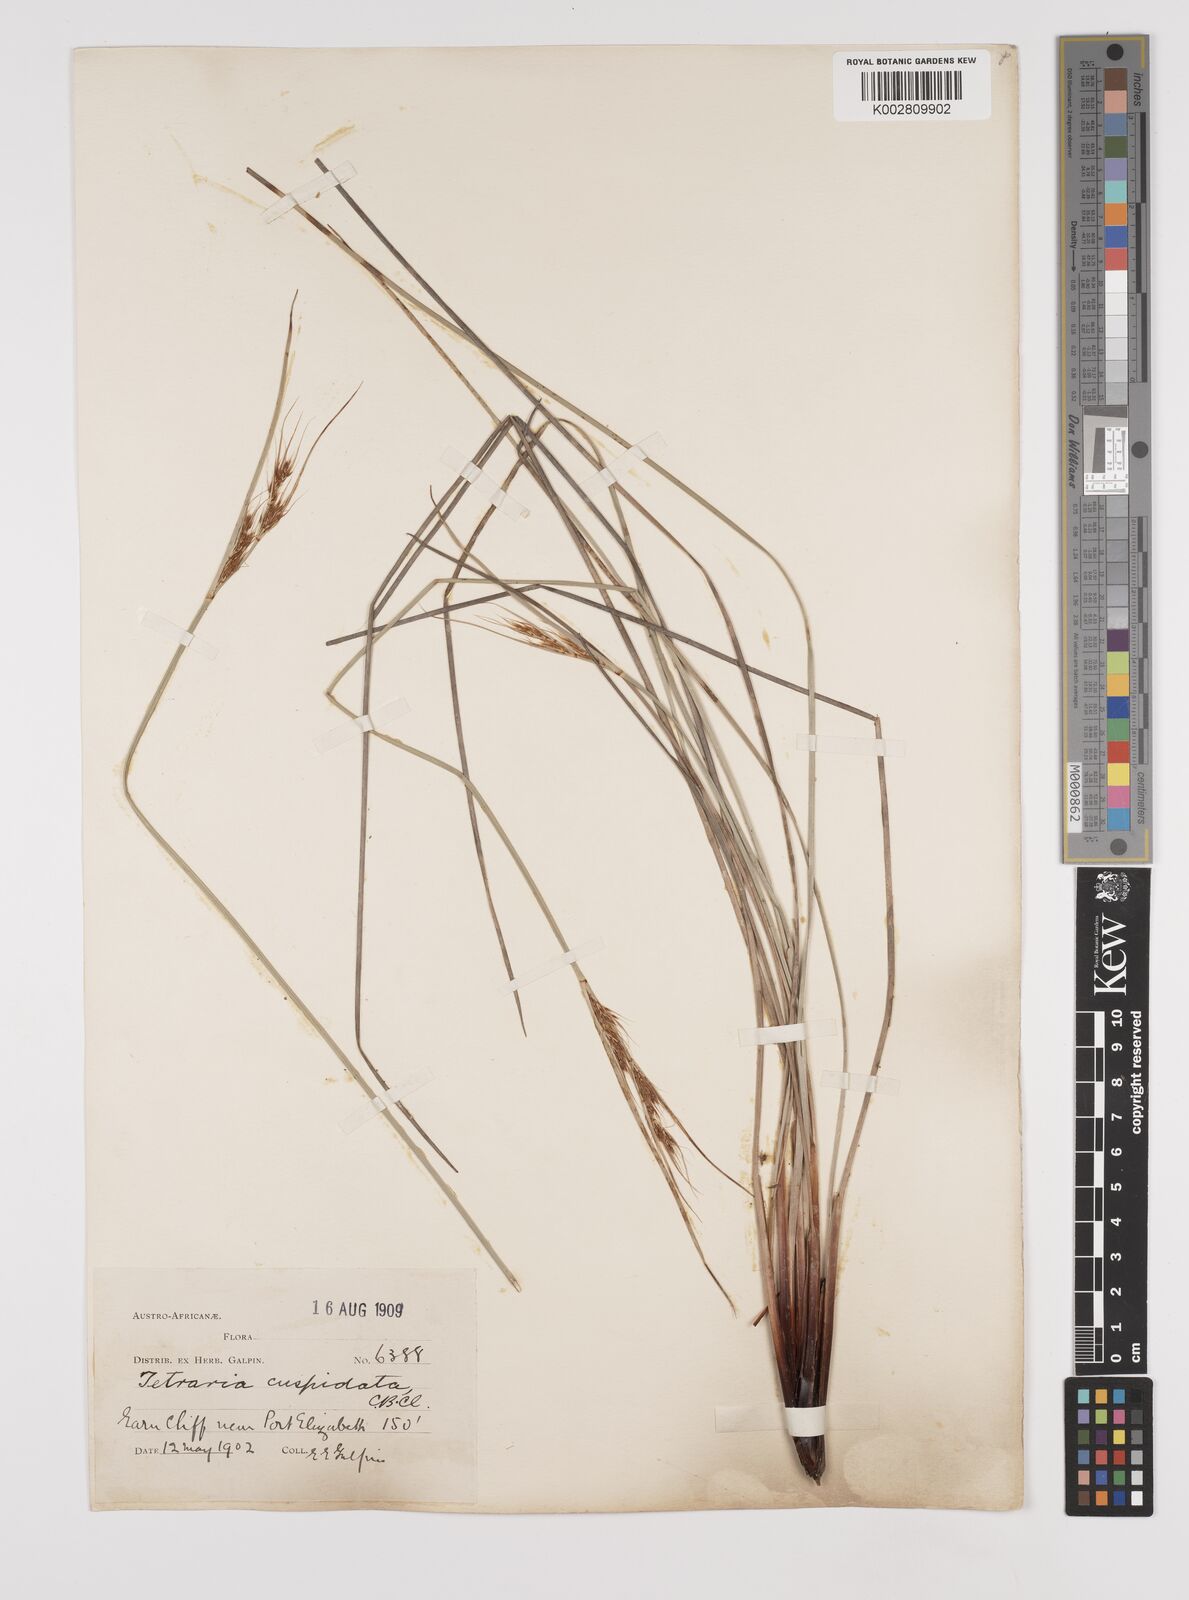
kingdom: Plantae
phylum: Tracheophyta
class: Liliopsida
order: Poales
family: Cyperaceae
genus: Schoenus
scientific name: Schoenus loreus
